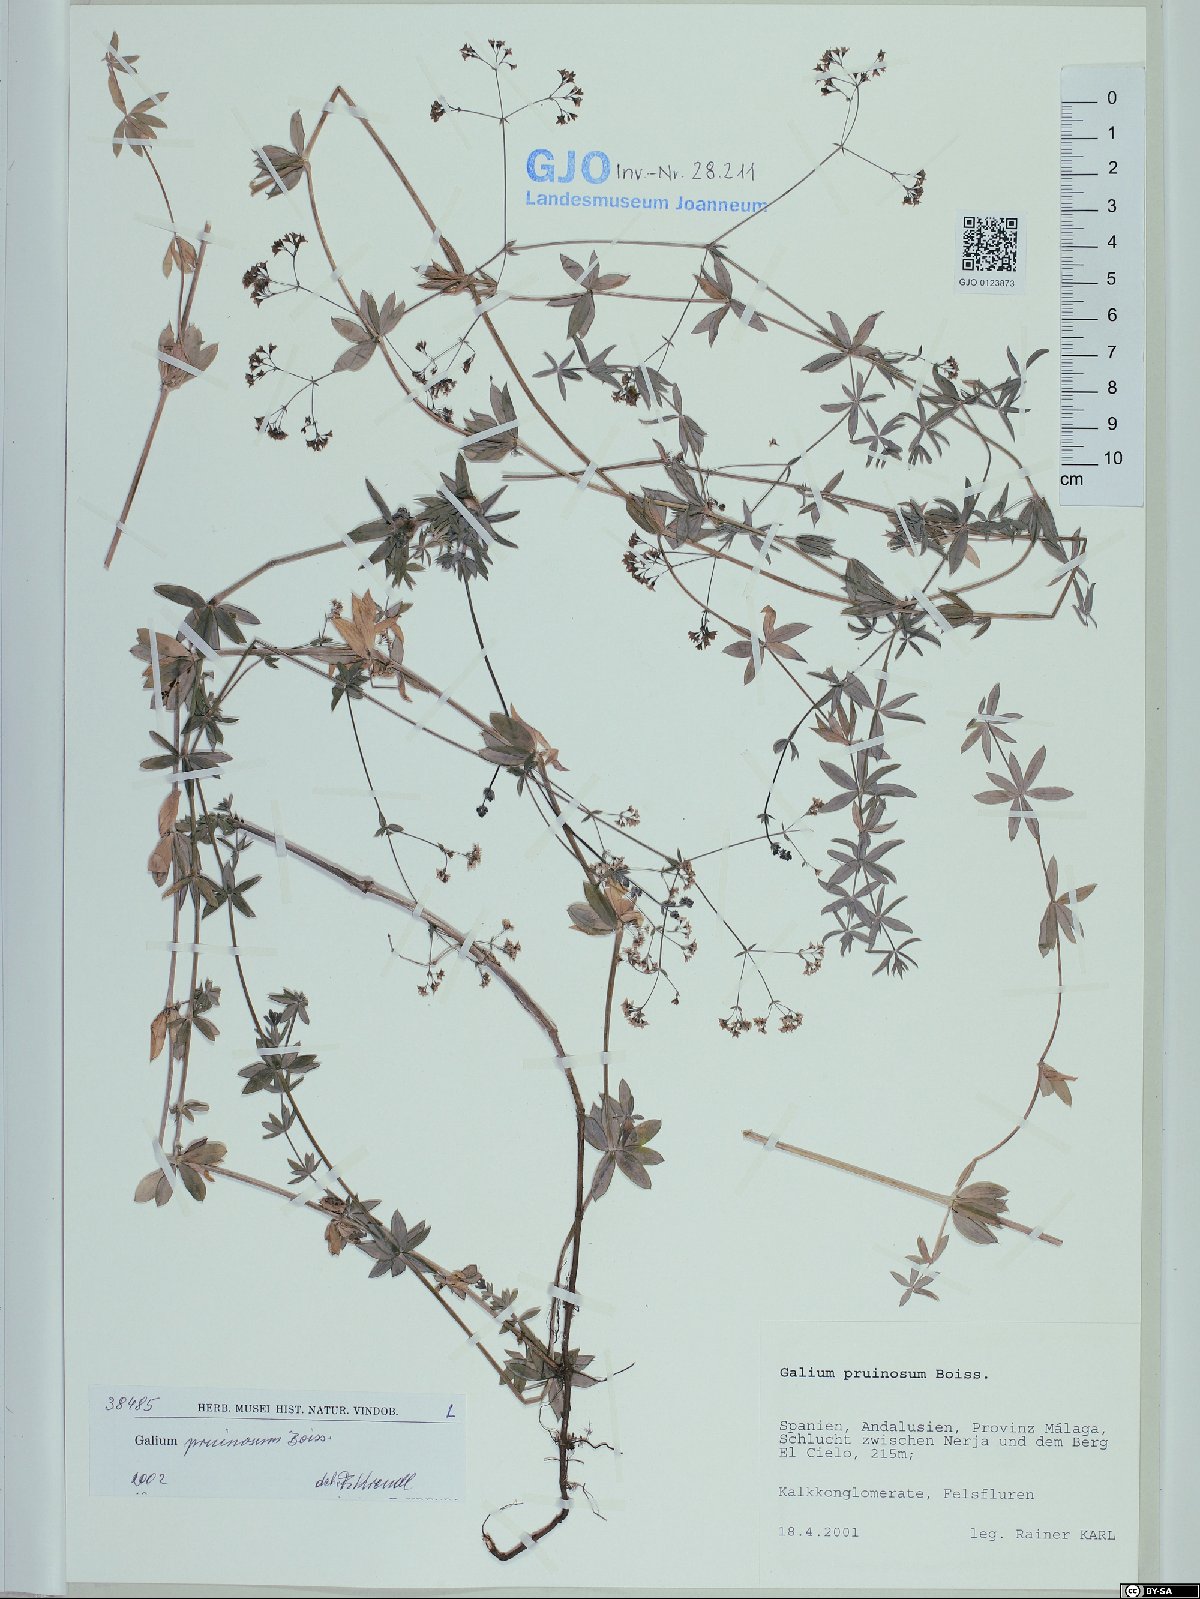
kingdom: Plantae
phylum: Tracheophyta
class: Magnoliopsida
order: Gentianales
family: Rubiaceae
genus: Galium
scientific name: Galium pruinosum
